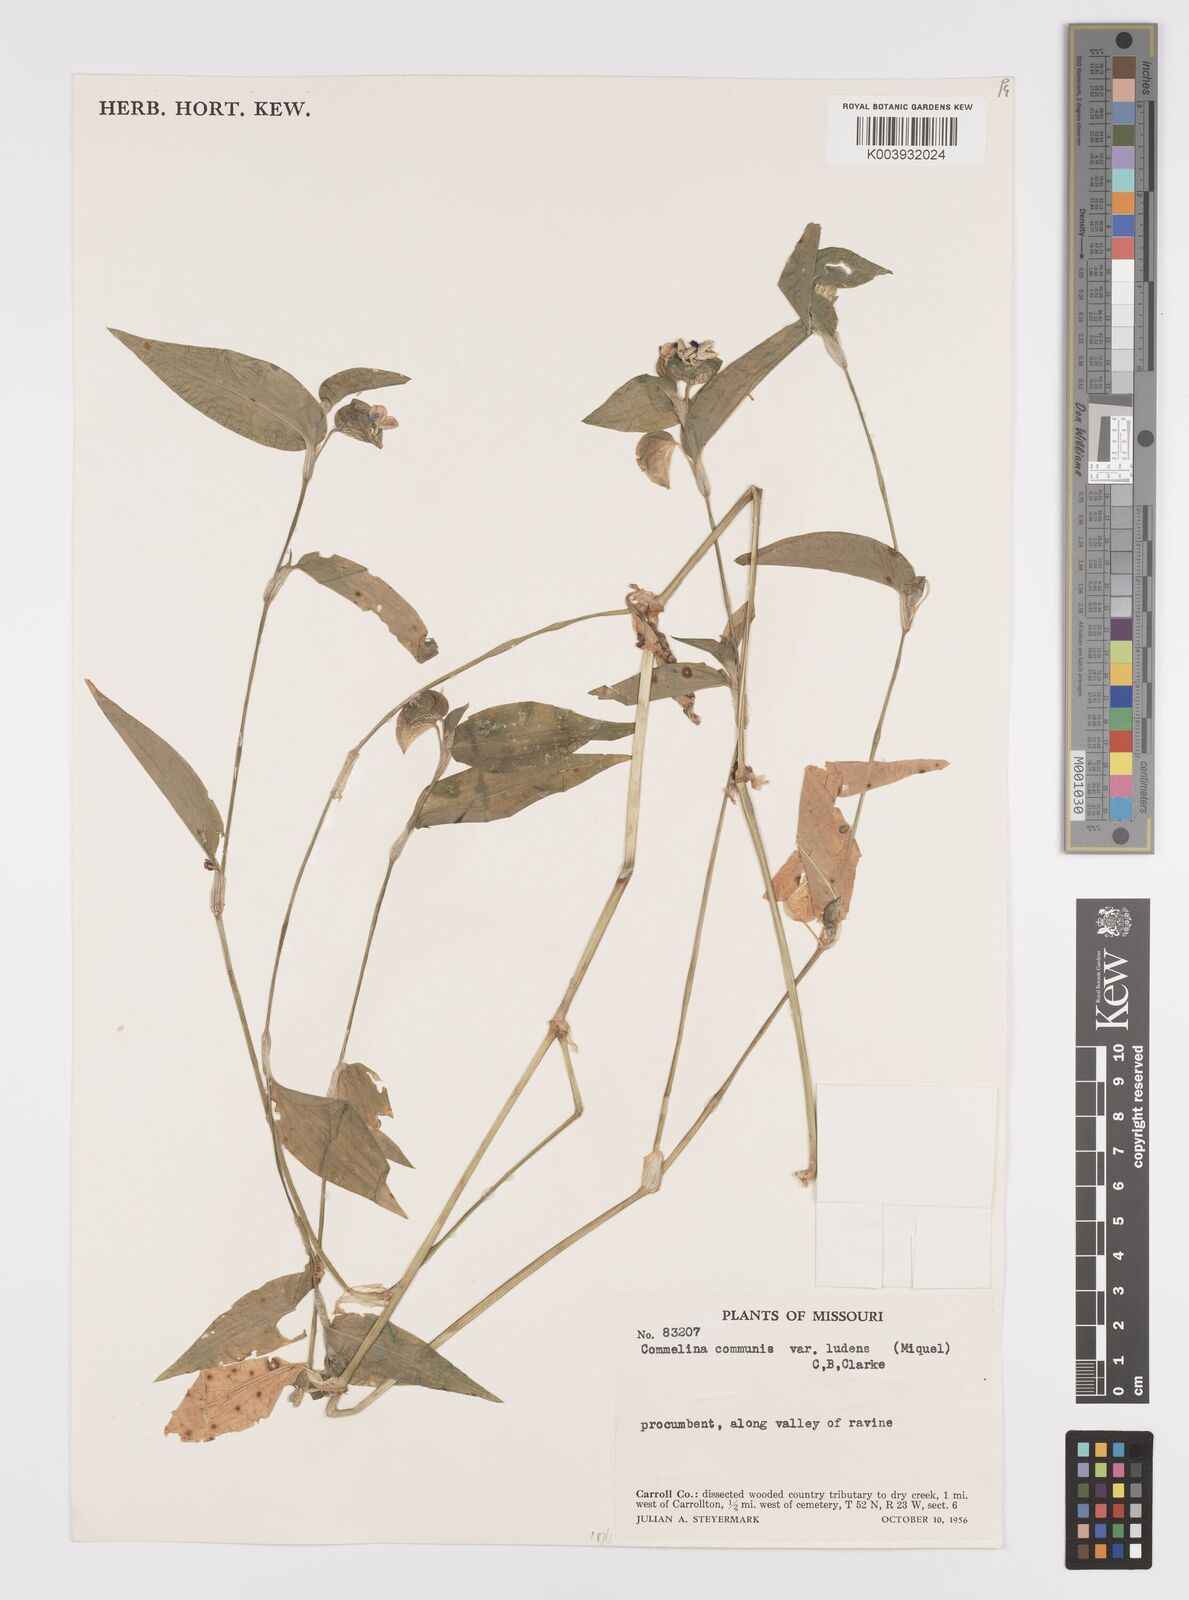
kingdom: Plantae
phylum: Tracheophyta
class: Liliopsida
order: Commelinales
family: Commelinaceae
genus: Commelina
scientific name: Commelina communis
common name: Asiatic dayflower
